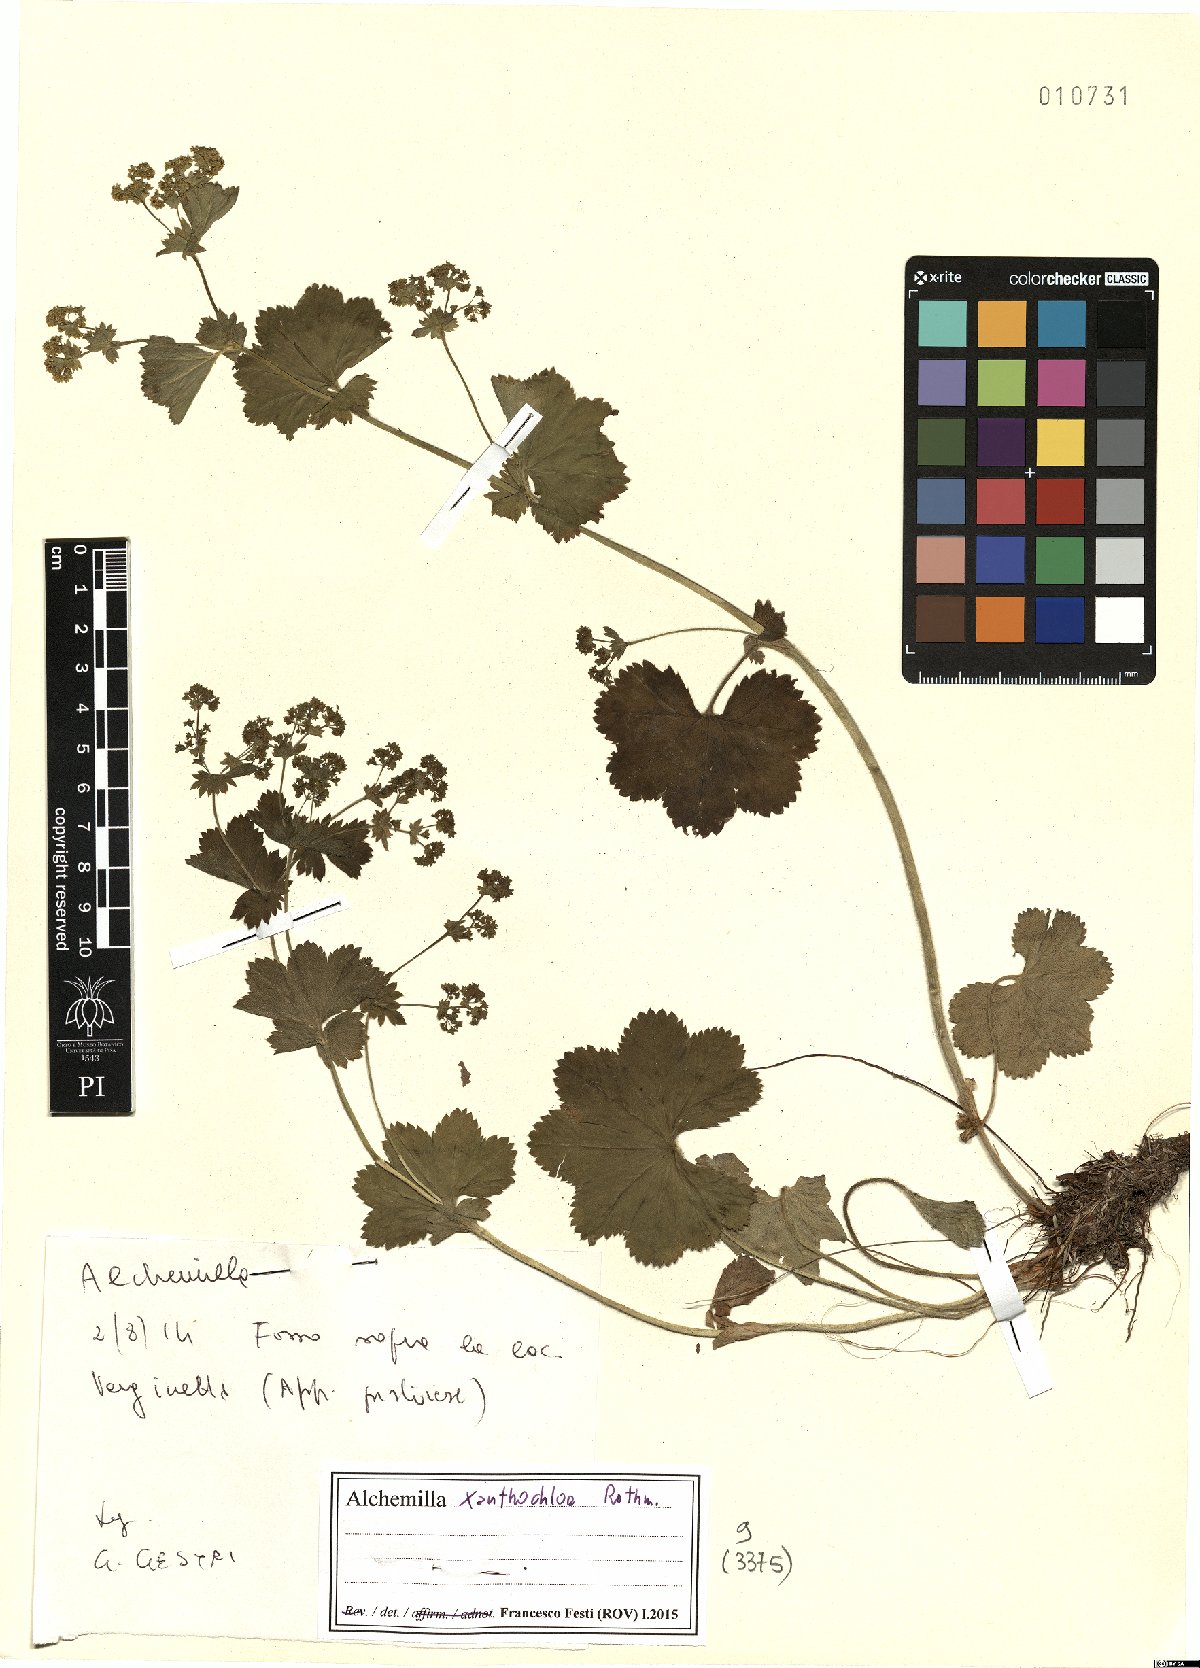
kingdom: Plantae
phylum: Tracheophyta
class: Magnoliopsida
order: Rosales
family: Rosaceae
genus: Alchemilla
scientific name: Alchemilla xanthochlora
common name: Intermediate lady's-mantle
